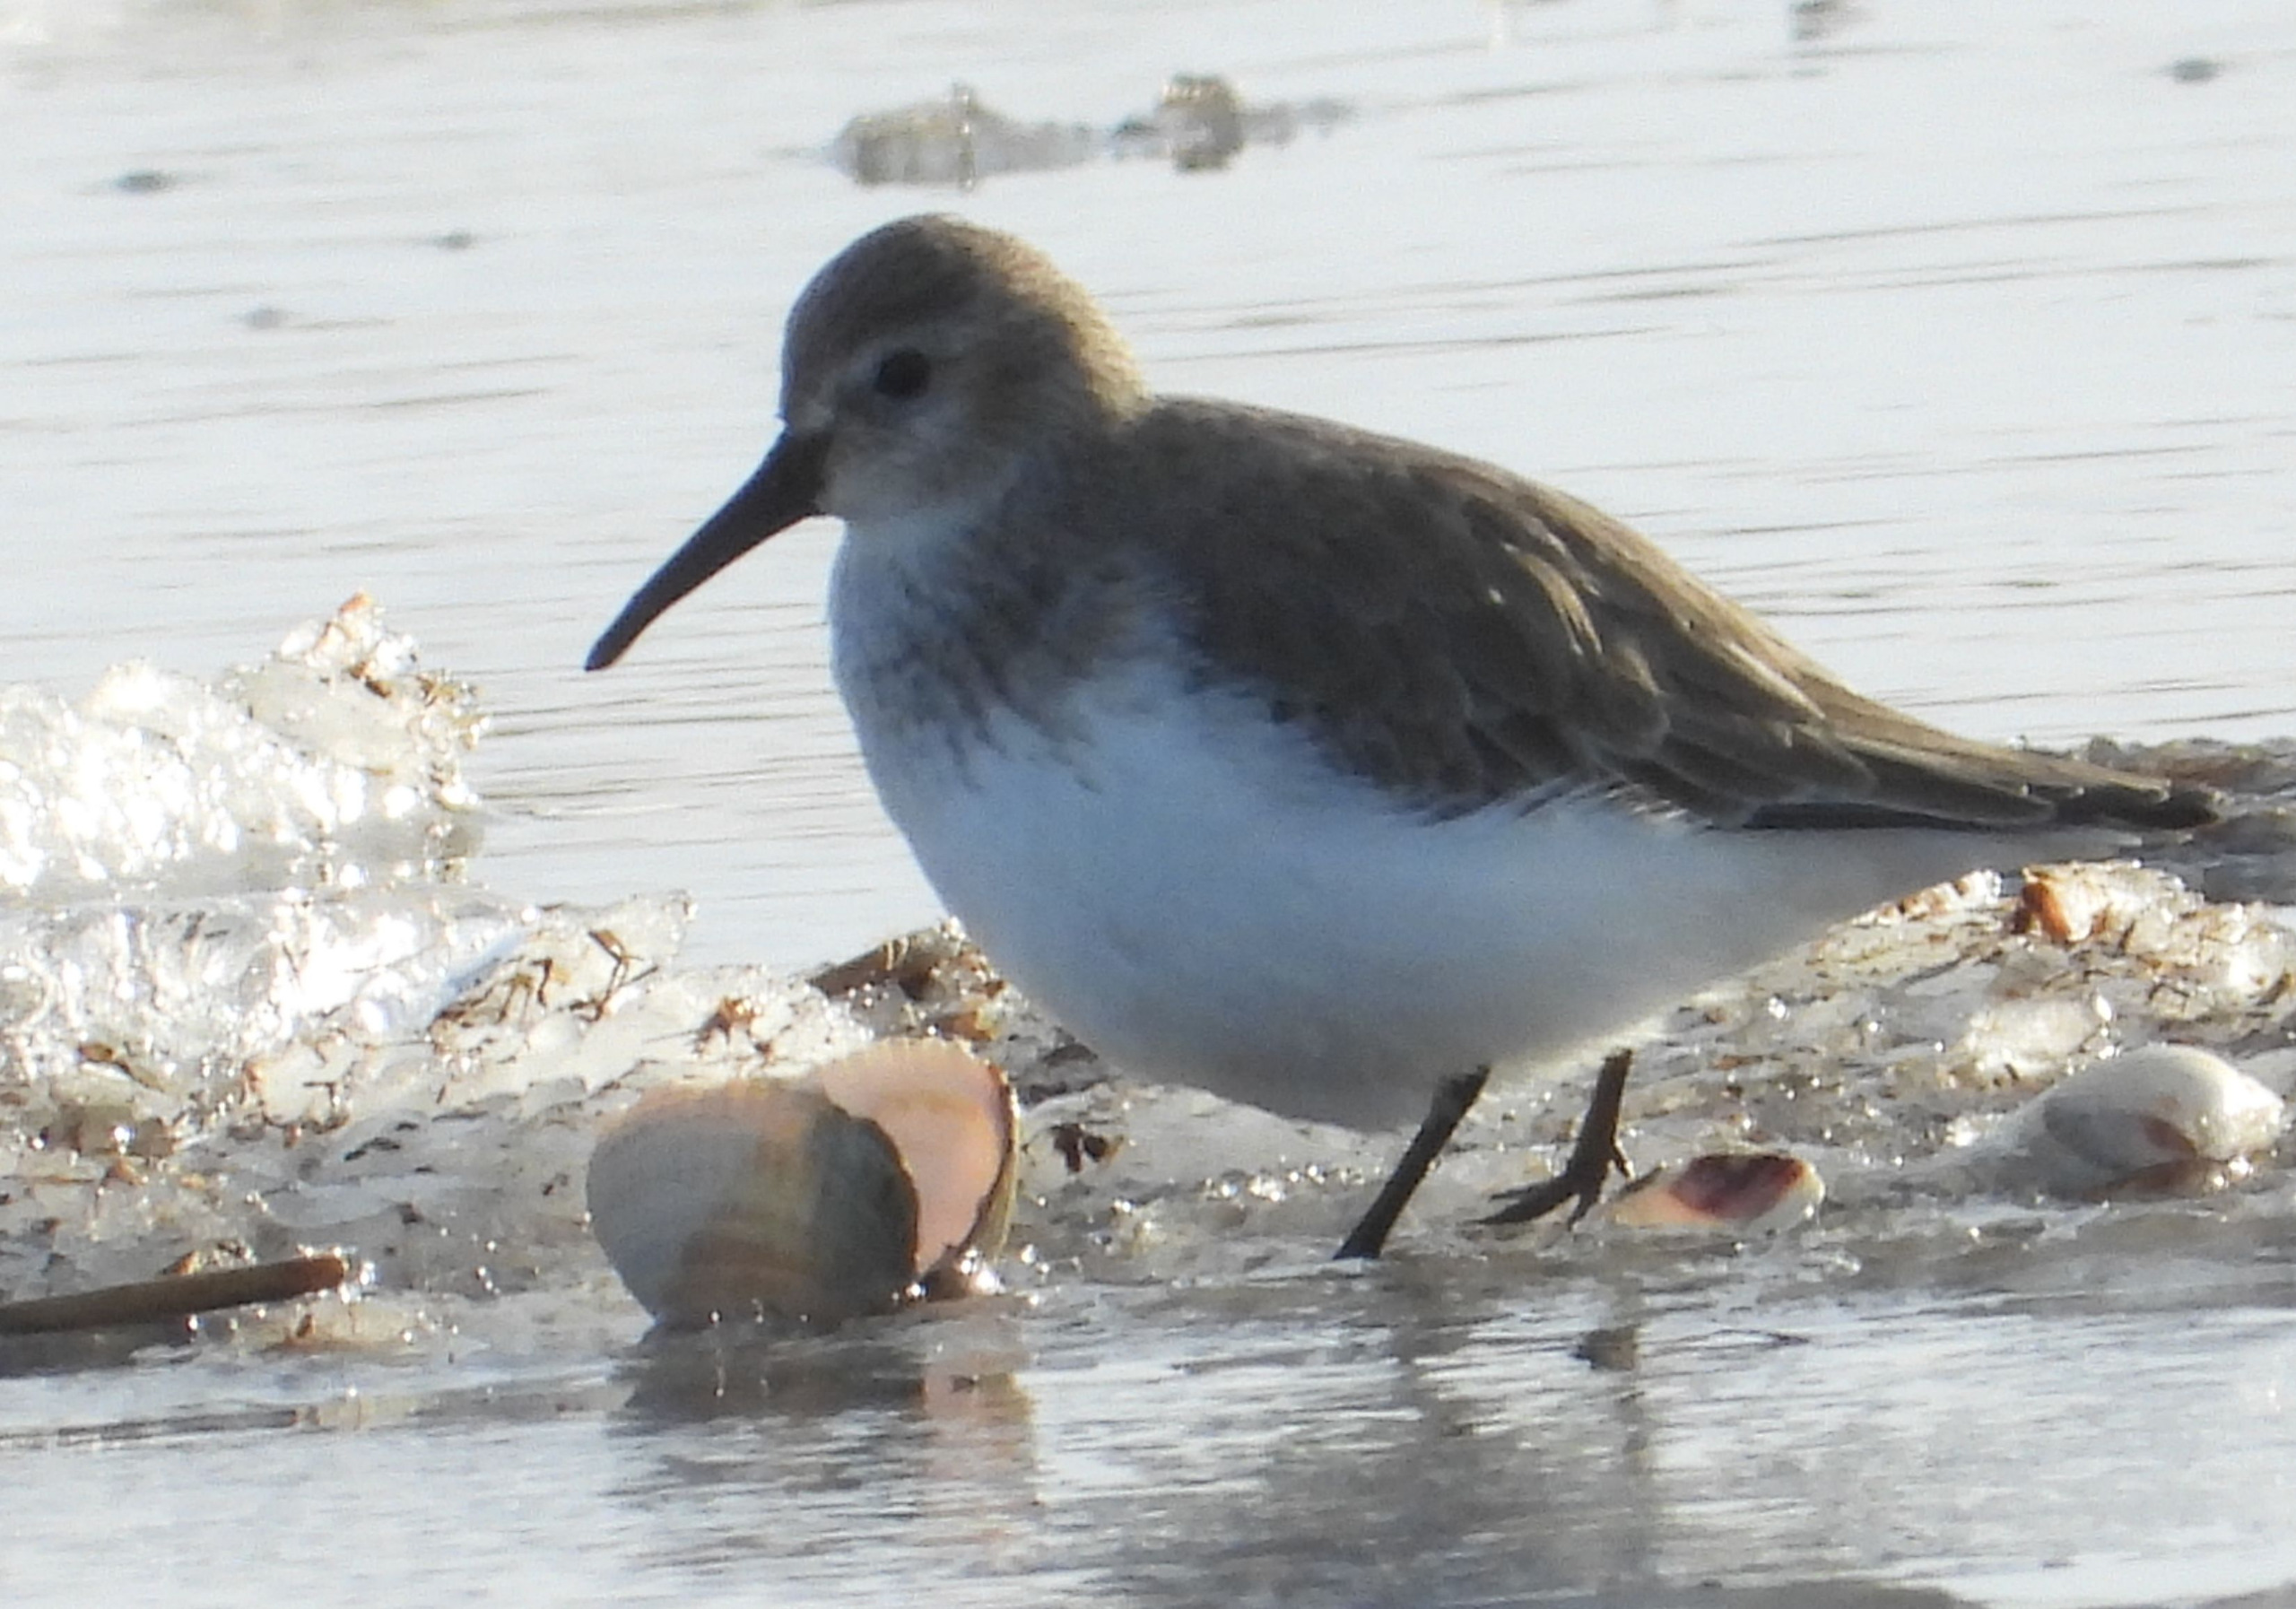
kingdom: Animalia
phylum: Chordata
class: Aves
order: Charadriiformes
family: Scolopacidae
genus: Calidris
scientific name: Calidris alpina
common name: Almindelig ryle
